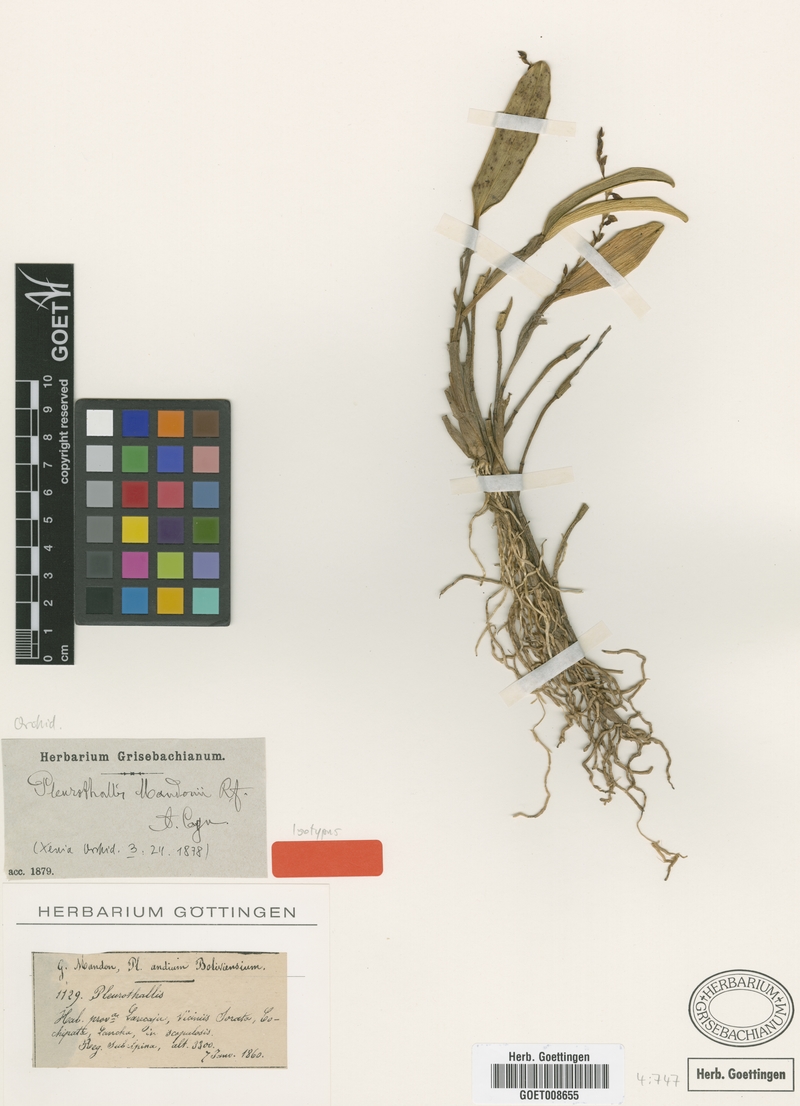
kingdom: Plantae
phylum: Tracheophyta
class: Liliopsida
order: Asparagales
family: Orchidaceae
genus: Stelis
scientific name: Stelis mandonii
